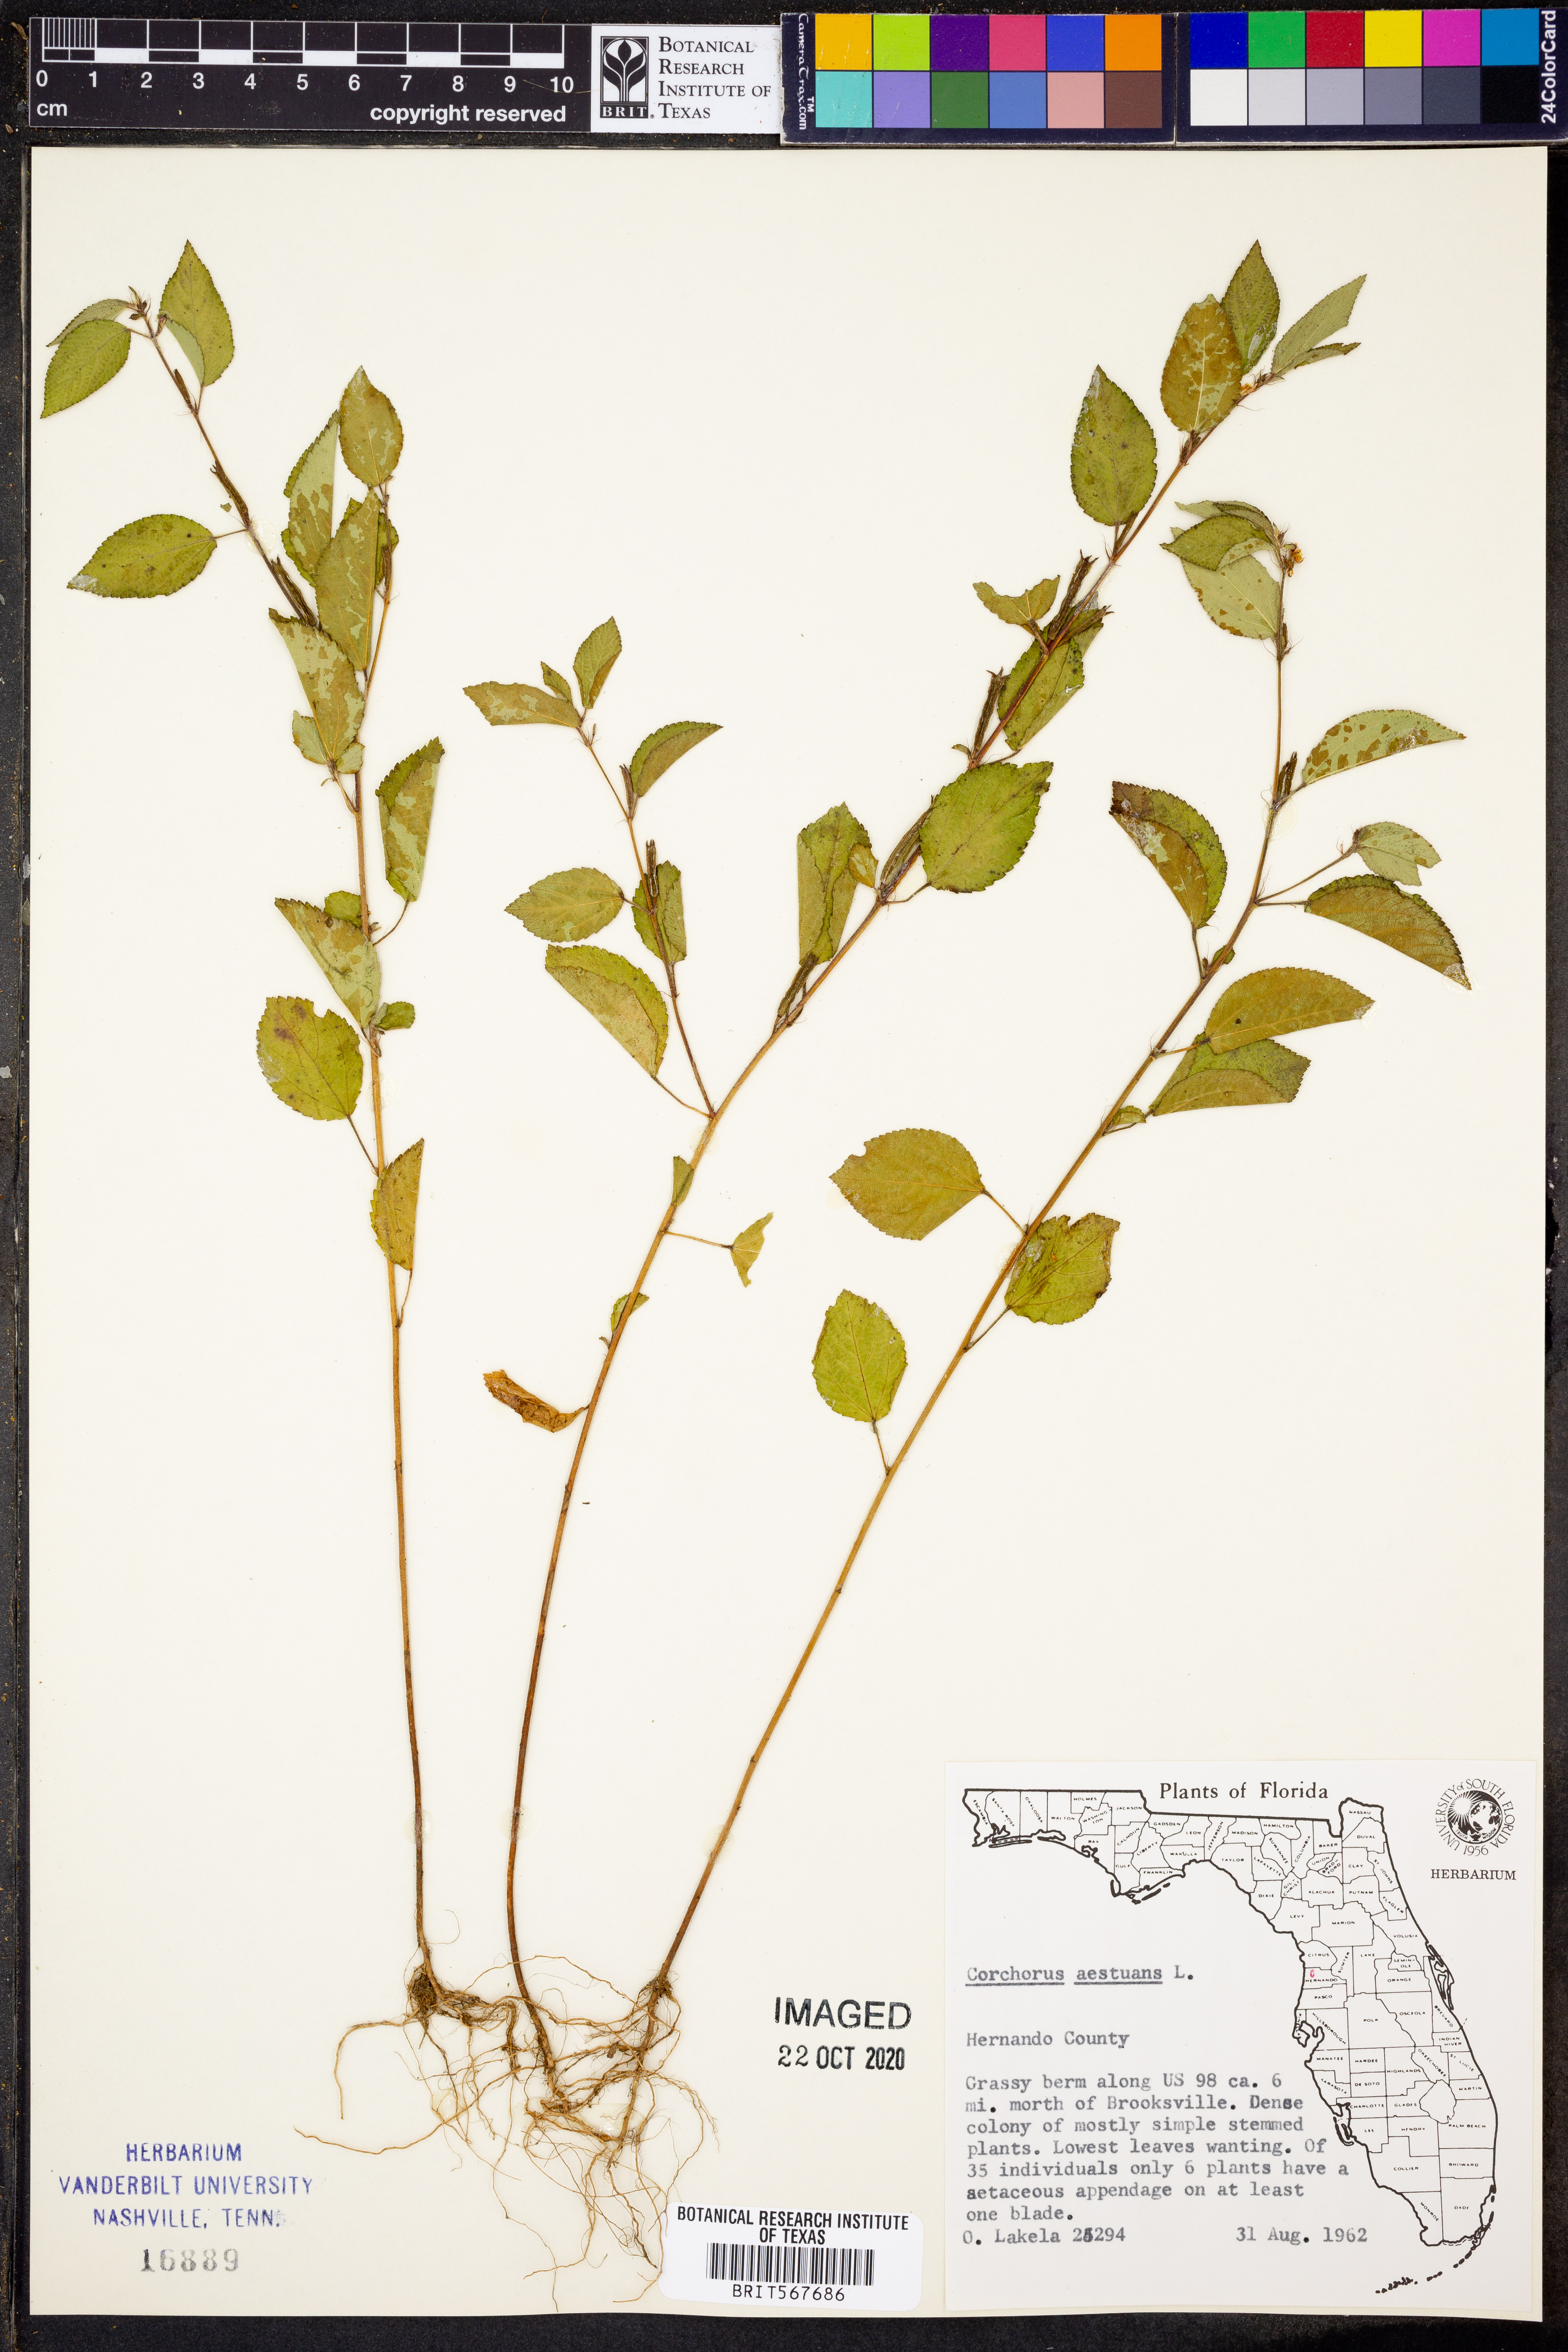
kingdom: Plantae
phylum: Tracheophyta
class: Magnoliopsida
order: Malvales
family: Malvaceae
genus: Corchorus
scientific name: Corchorus aestuans
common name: Jute
